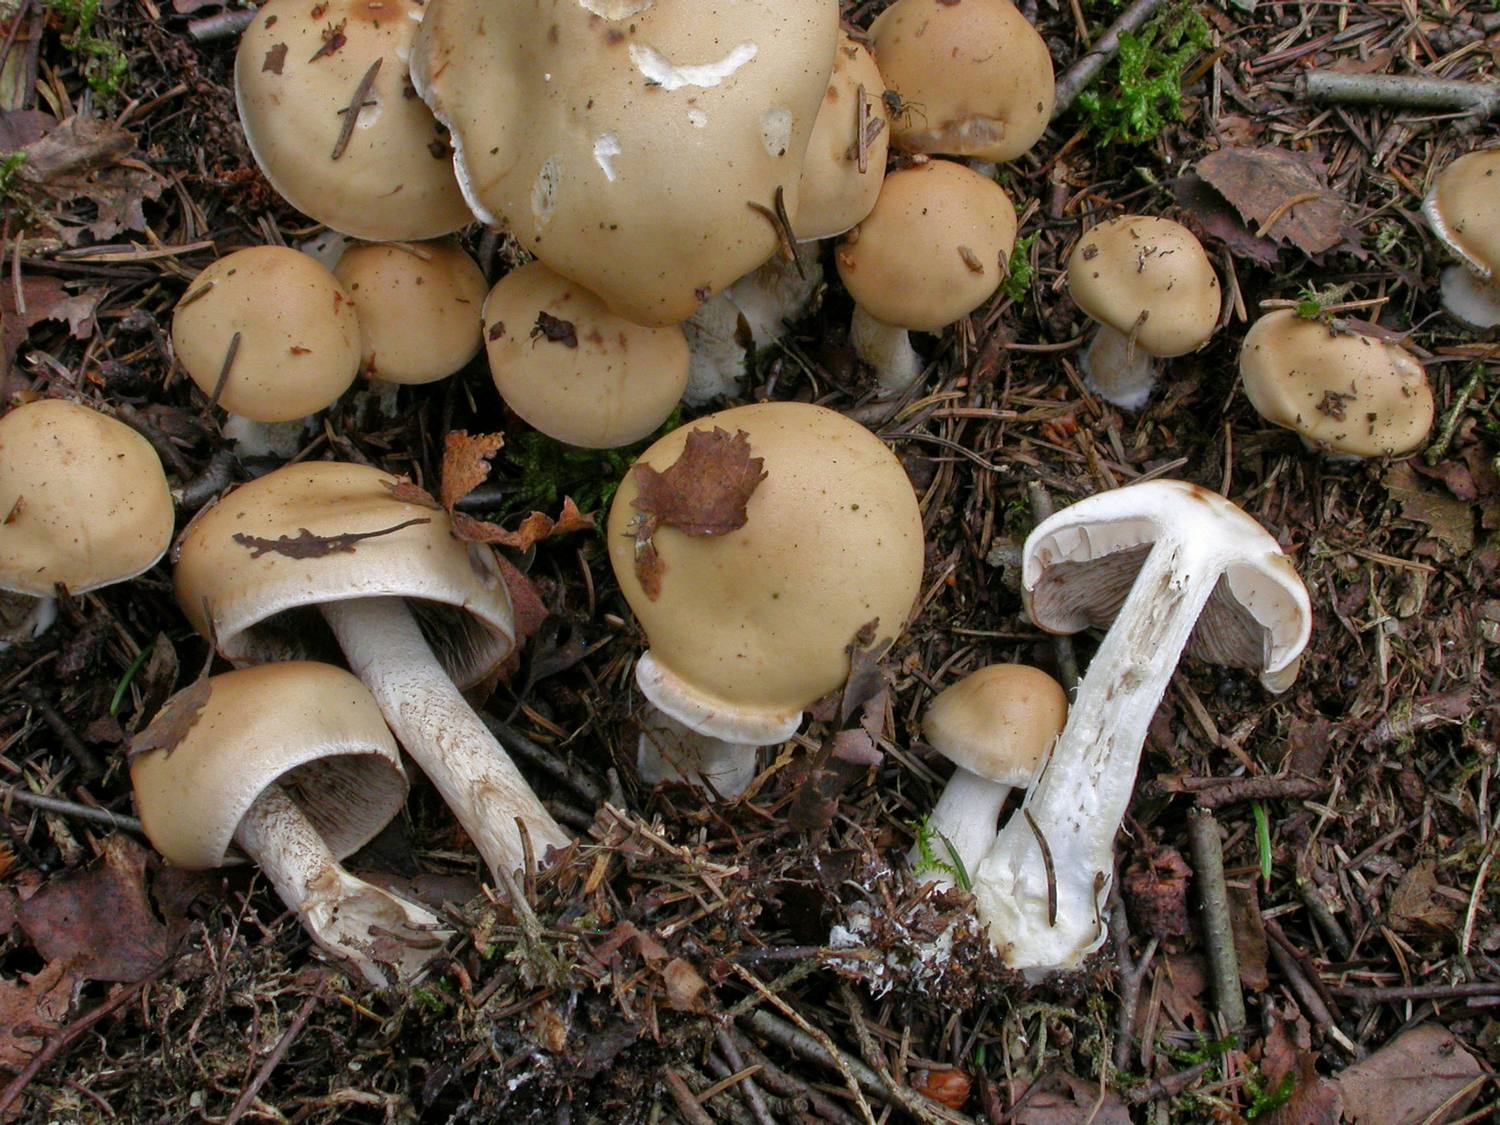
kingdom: Fungi
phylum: Basidiomycota
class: Agaricomycetes
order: Agaricales
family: Hymenogastraceae
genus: Hebeloma
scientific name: Hebeloma leucosarx
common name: højstokket tåreblad
